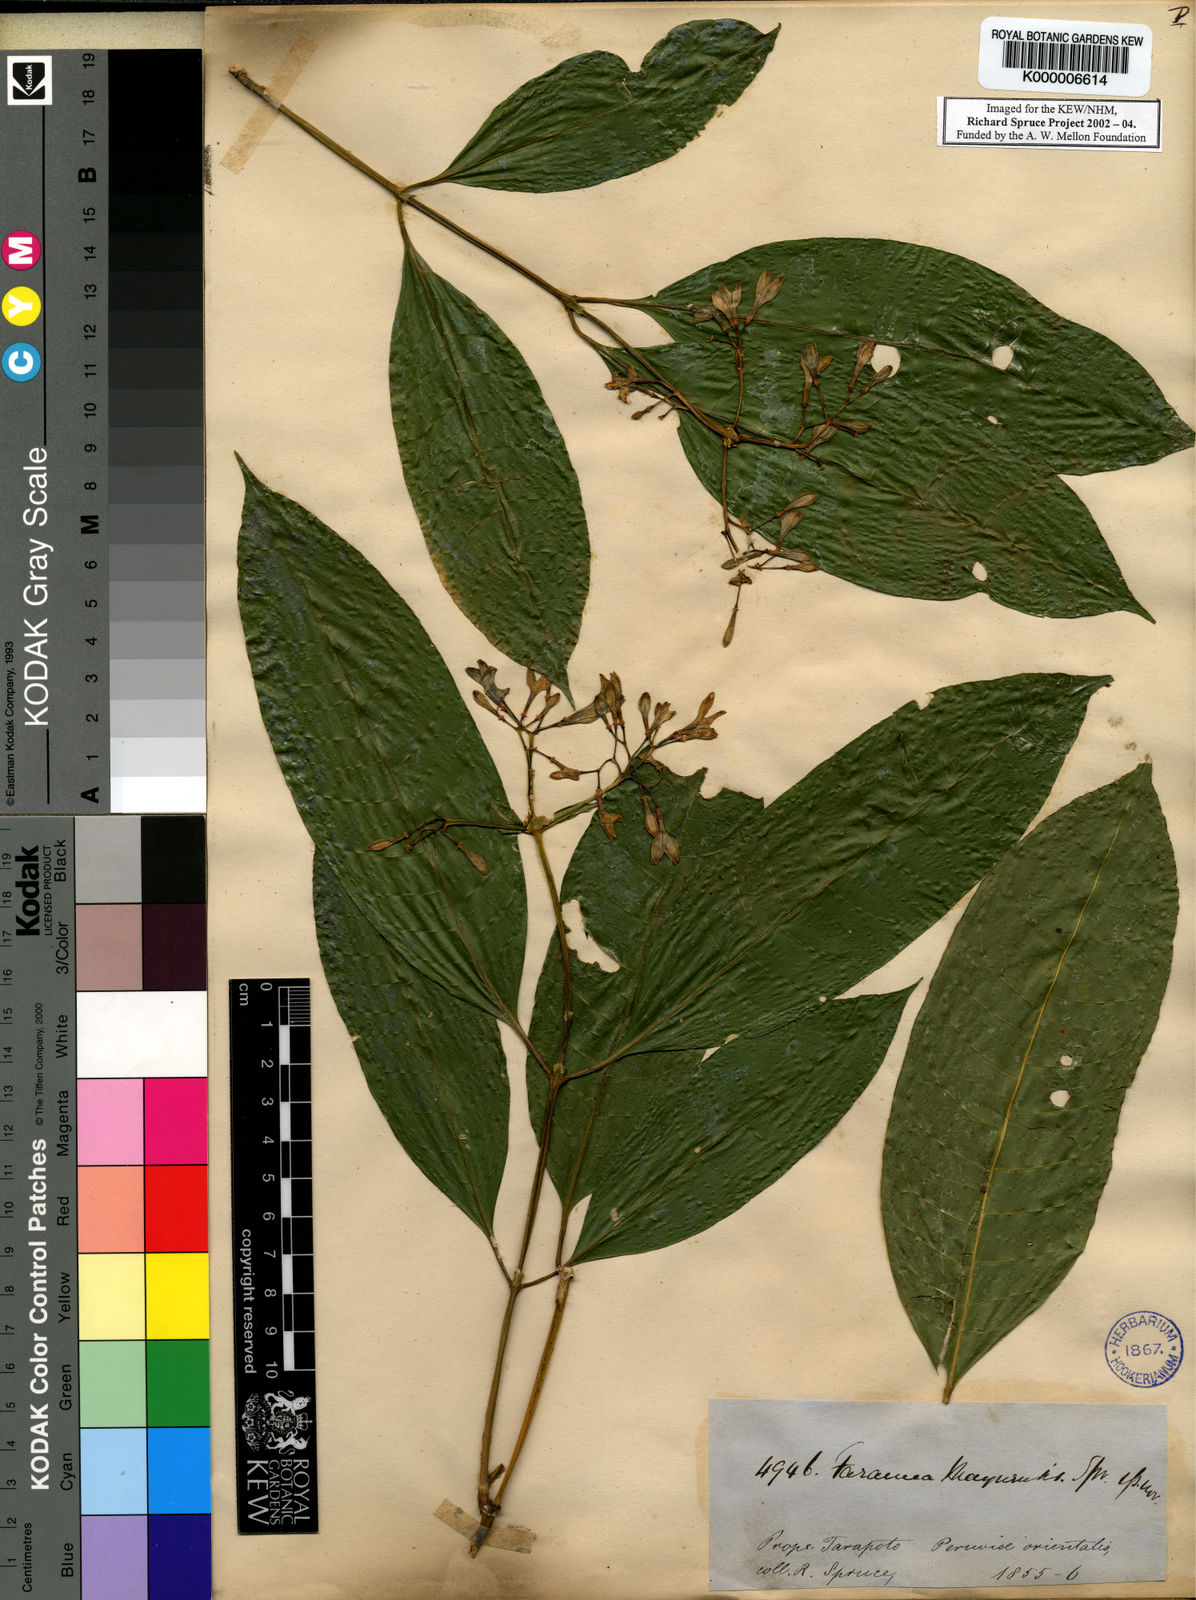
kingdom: Plantae
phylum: Tracheophyta
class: Magnoliopsida
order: Gentianales
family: Rubiaceae
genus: Faramea
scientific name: Faramea multiflora
